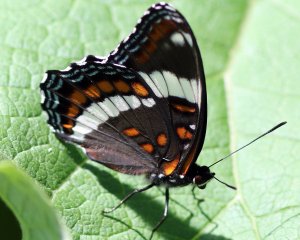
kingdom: Animalia
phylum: Arthropoda
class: Insecta
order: Lepidoptera
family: Nymphalidae
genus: Limenitis
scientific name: Limenitis arthemis
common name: Red-spotted Admiral
